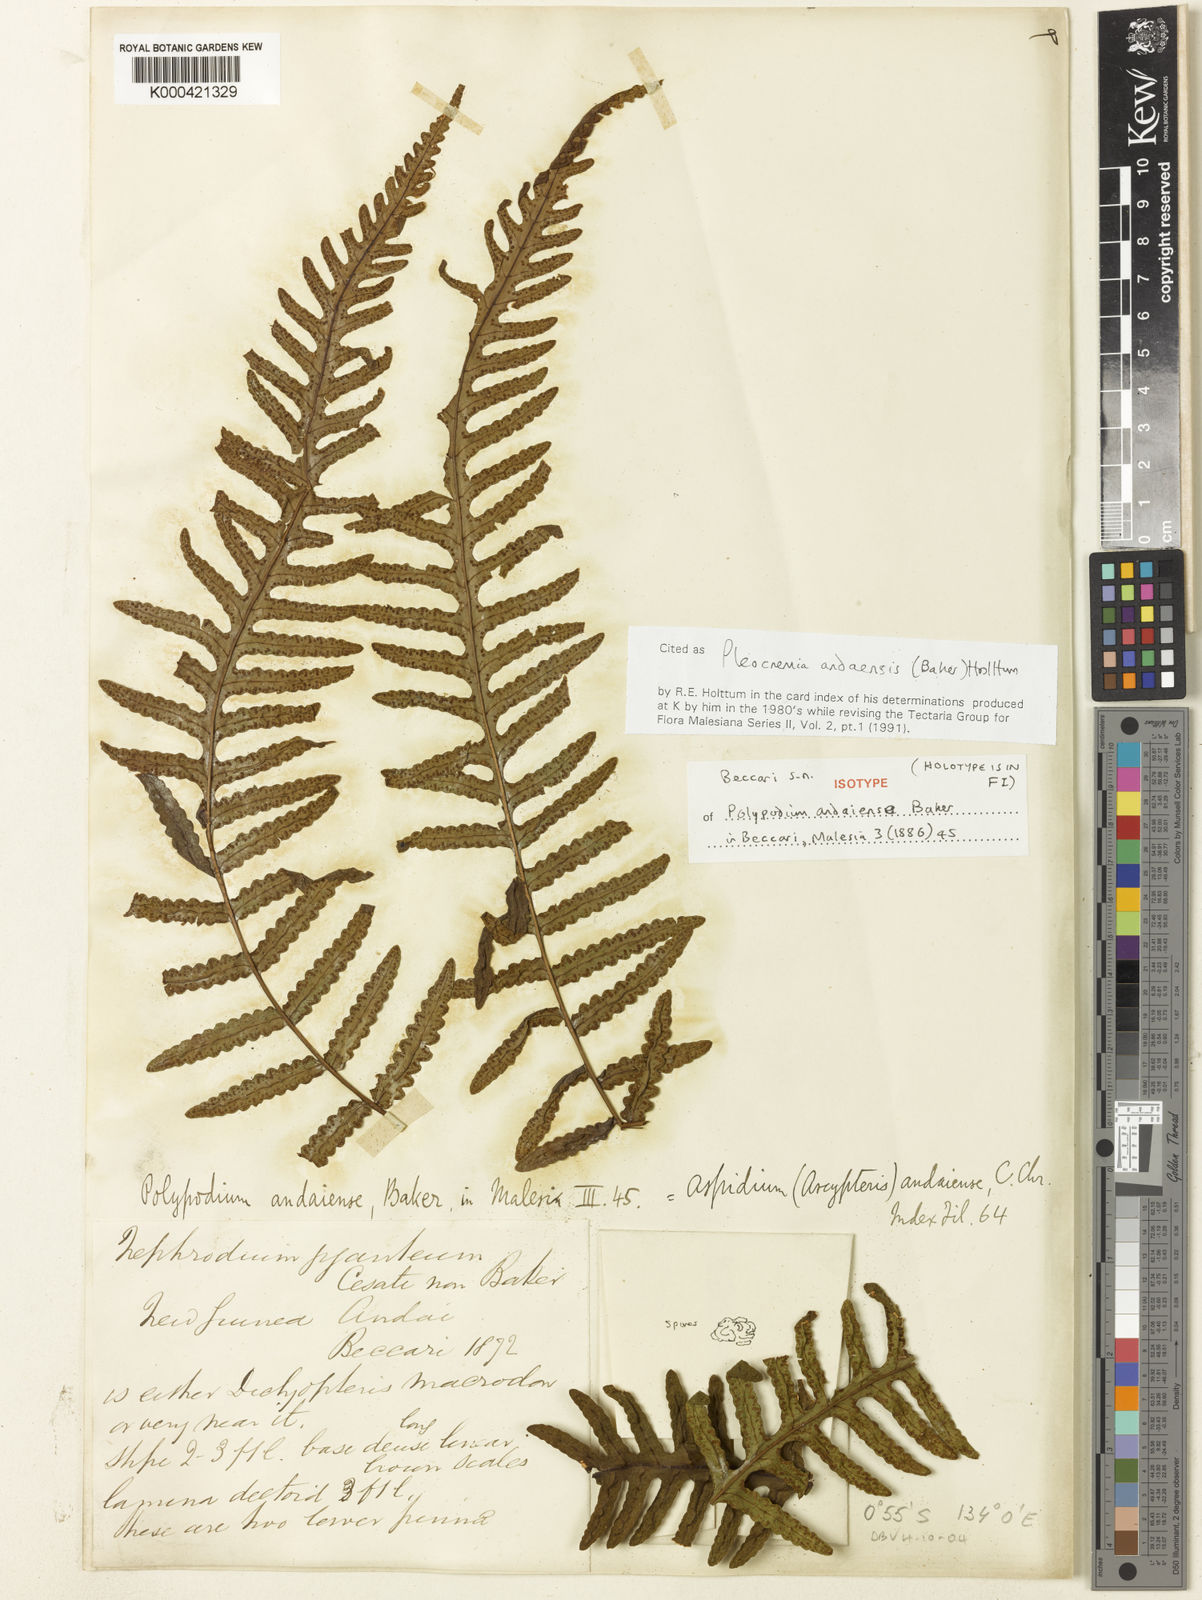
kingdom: Plantae
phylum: Tracheophyta
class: Polypodiopsida
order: Polypodiales
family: Dryopteridaceae
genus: Pleocnemia
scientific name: Pleocnemia andaiensis
